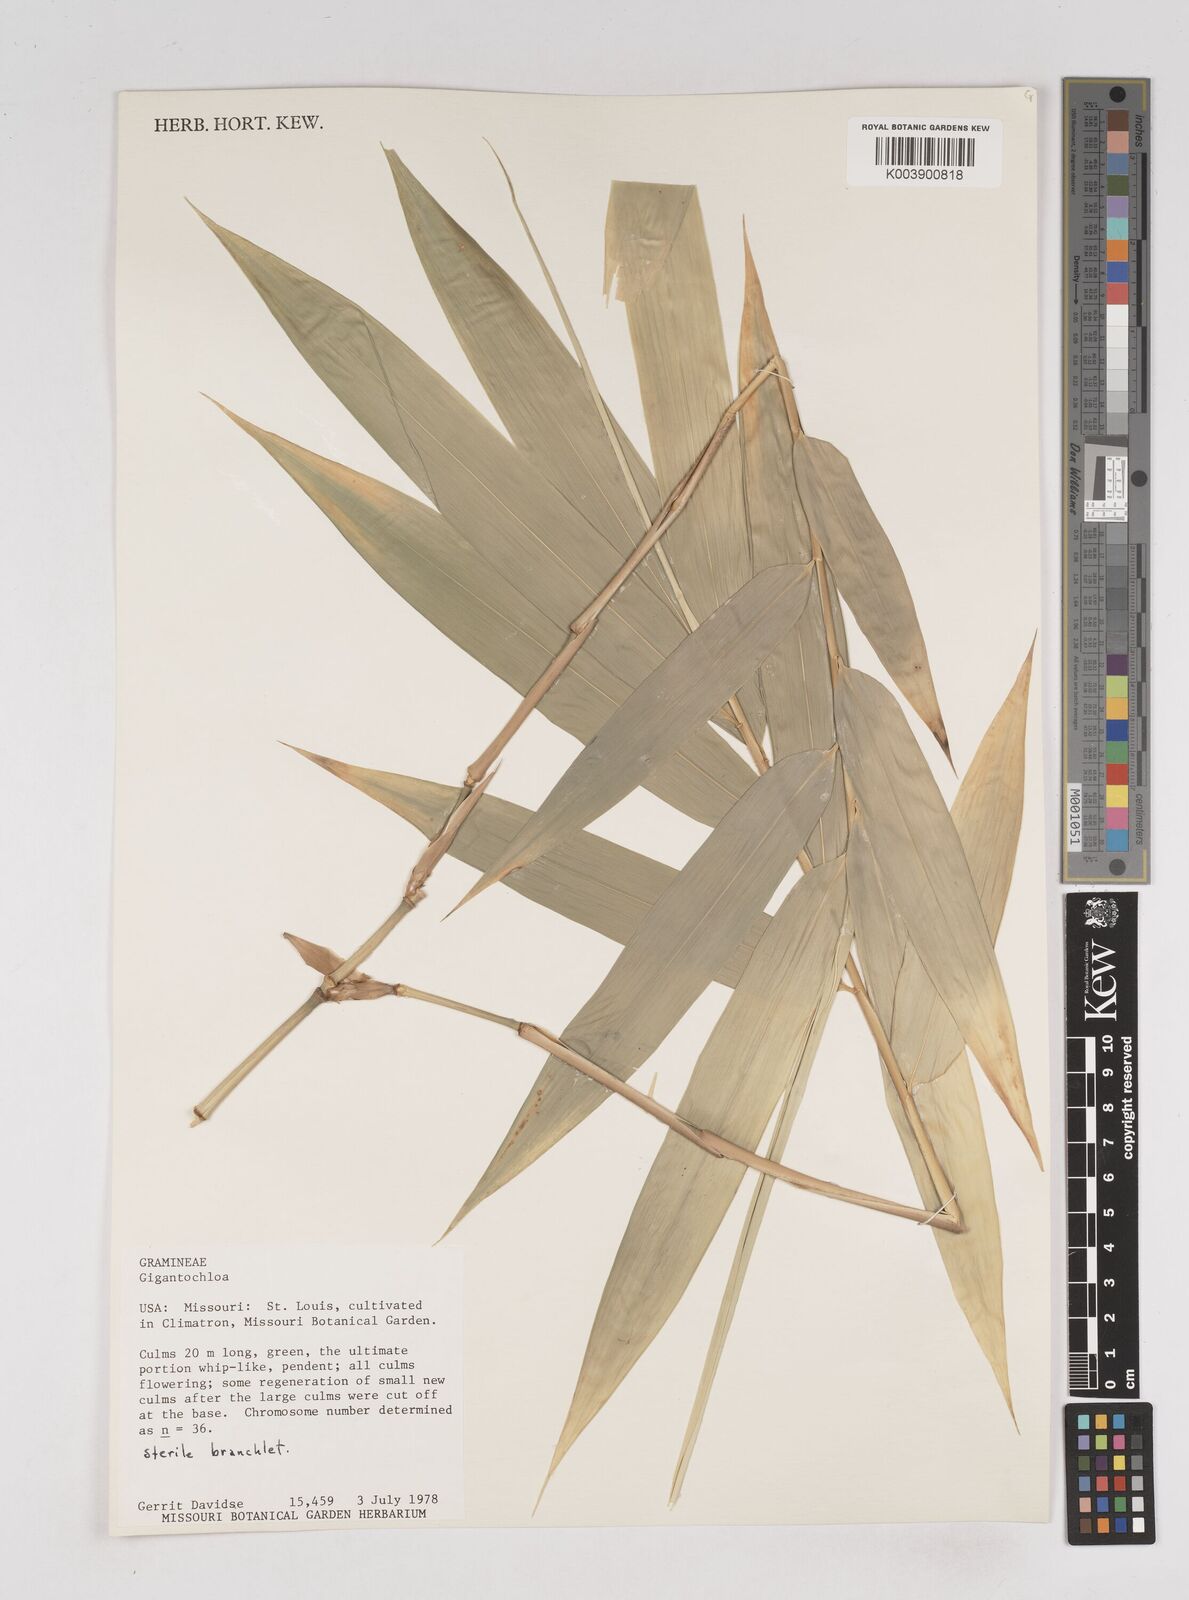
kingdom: Plantae
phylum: Tracheophyta
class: Liliopsida
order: Poales
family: Poaceae
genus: Gigantochloa
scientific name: Gigantochloa
